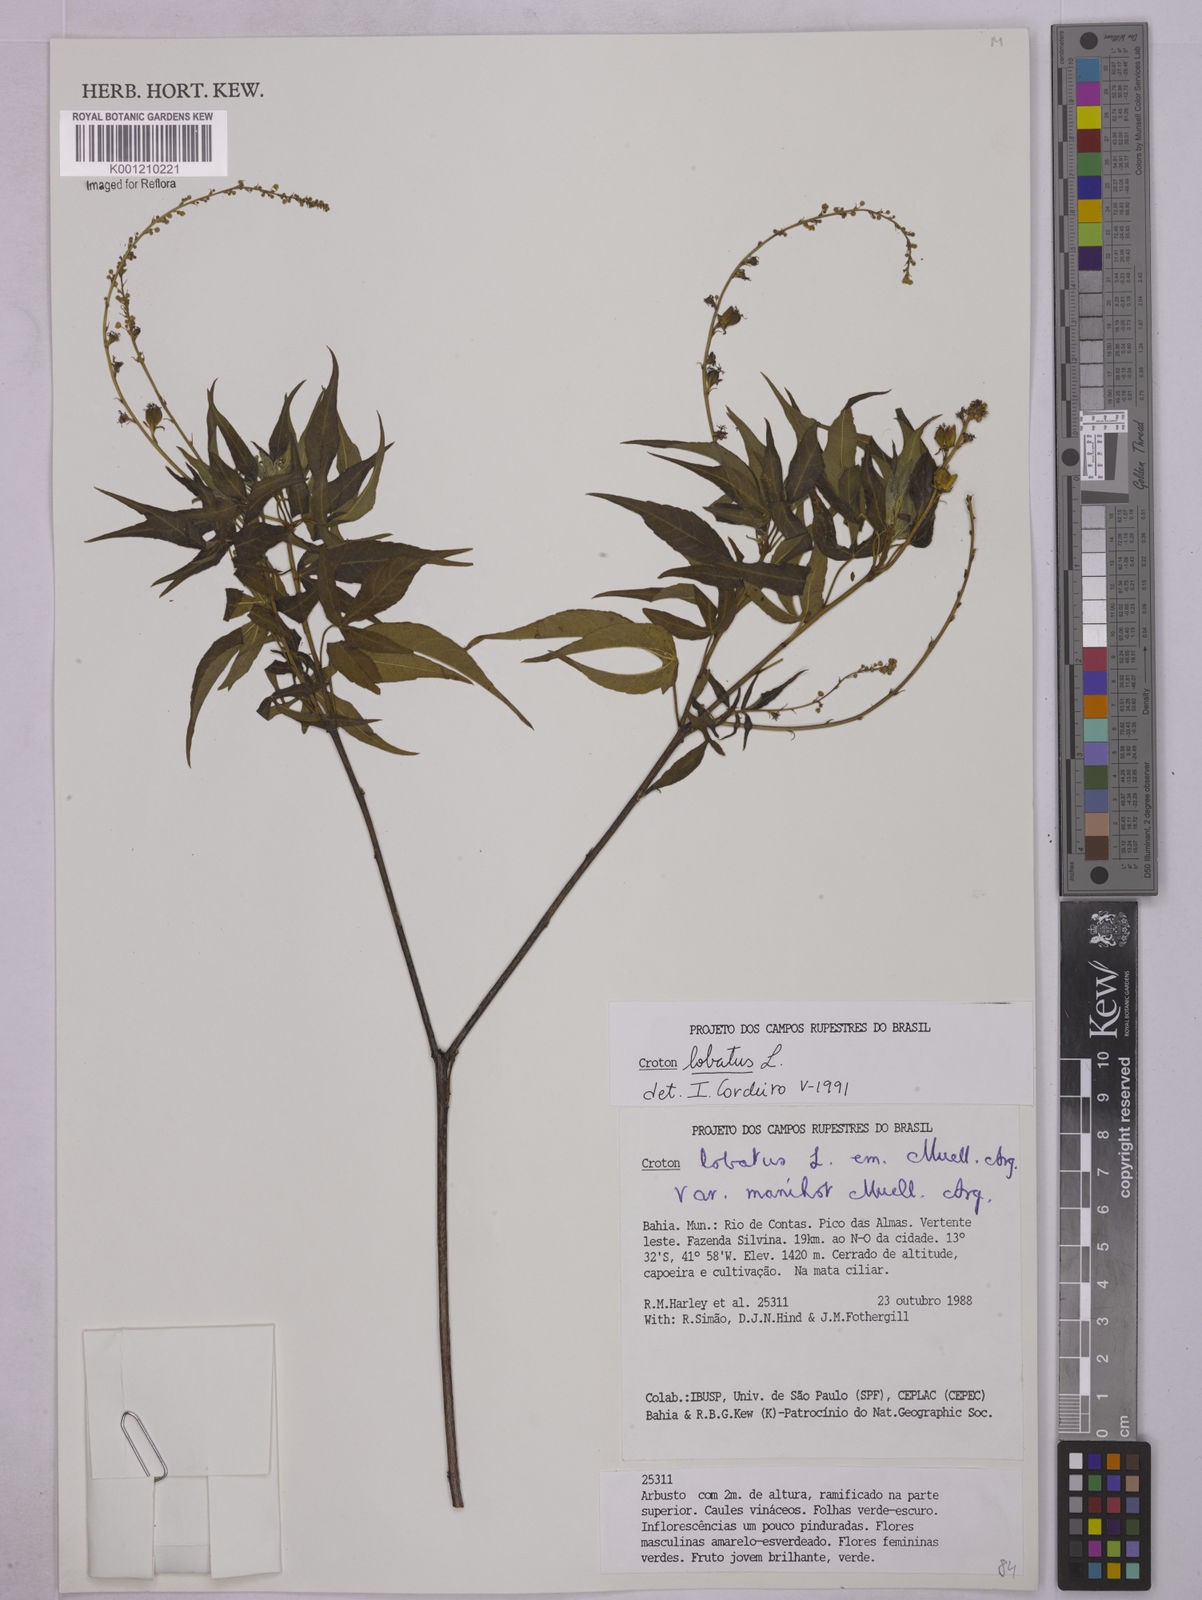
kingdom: Plantae
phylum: Tracheophyta
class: Magnoliopsida
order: Malpighiales
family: Euphorbiaceae
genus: Astraea
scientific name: Astraea lobata
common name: Lobed croton
